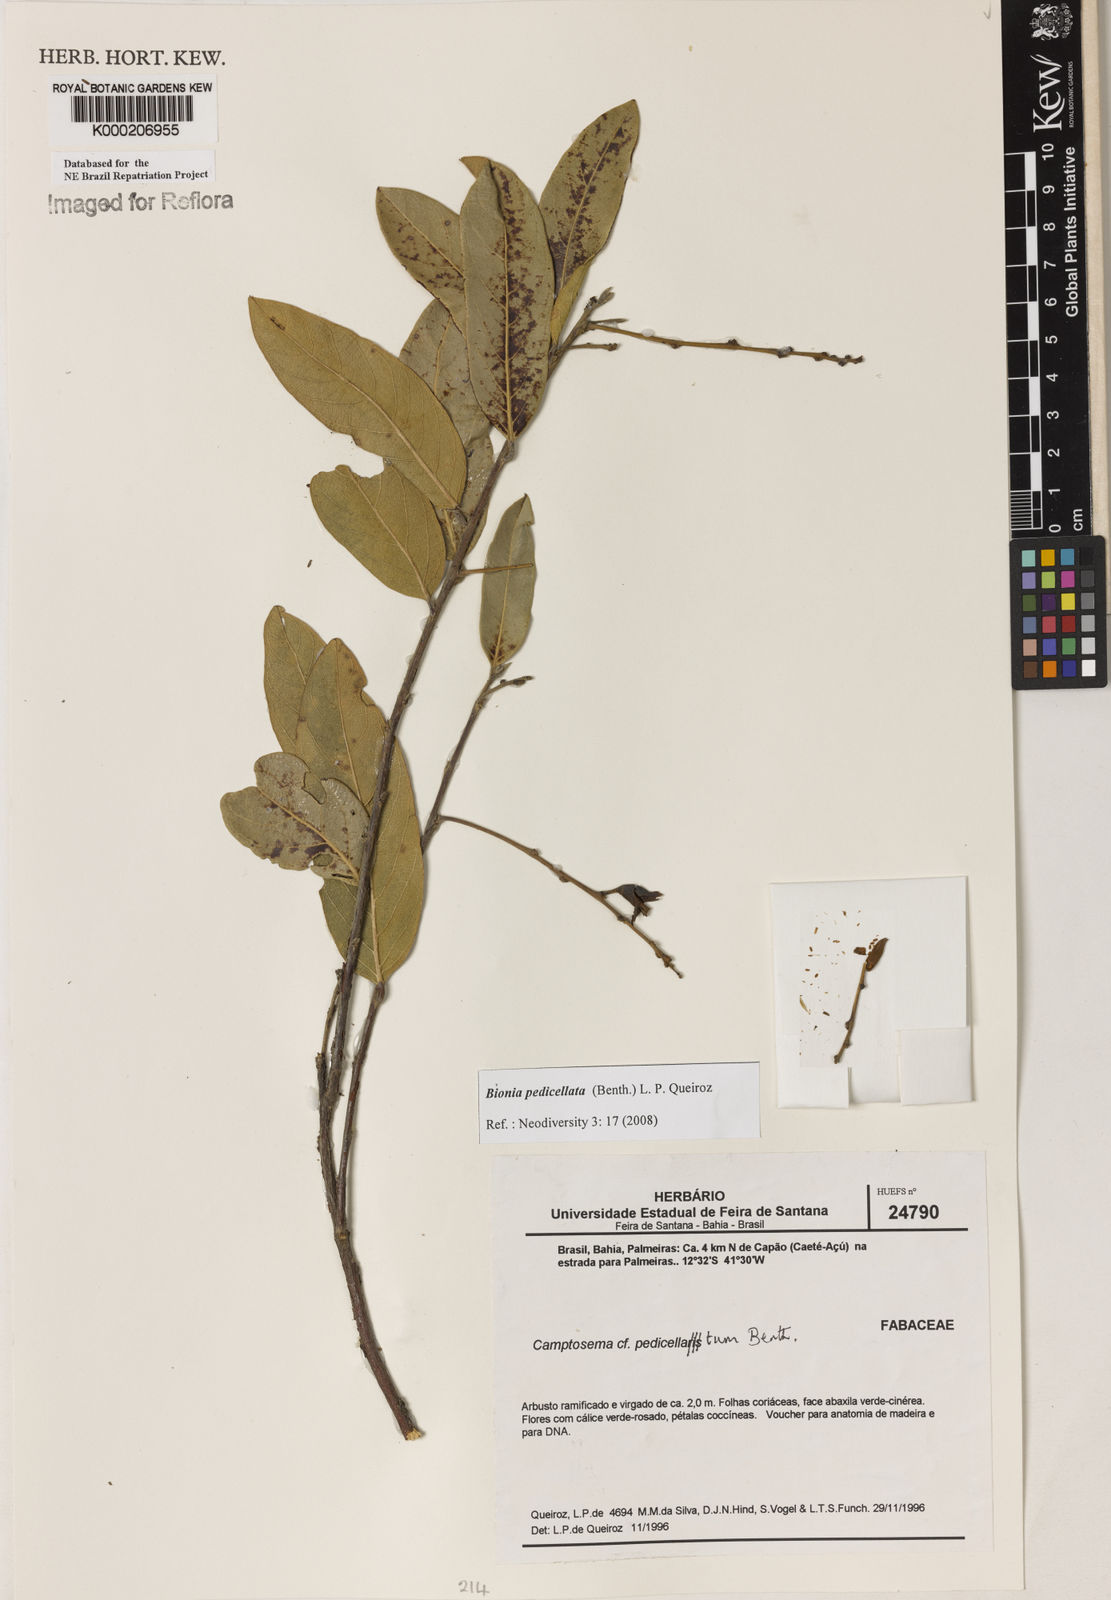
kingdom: Plantae
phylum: Tracheophyta
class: Magnoliopsida
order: Fabales
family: Fabaceae
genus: Camptosema
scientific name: Camptosema pedicellatum
